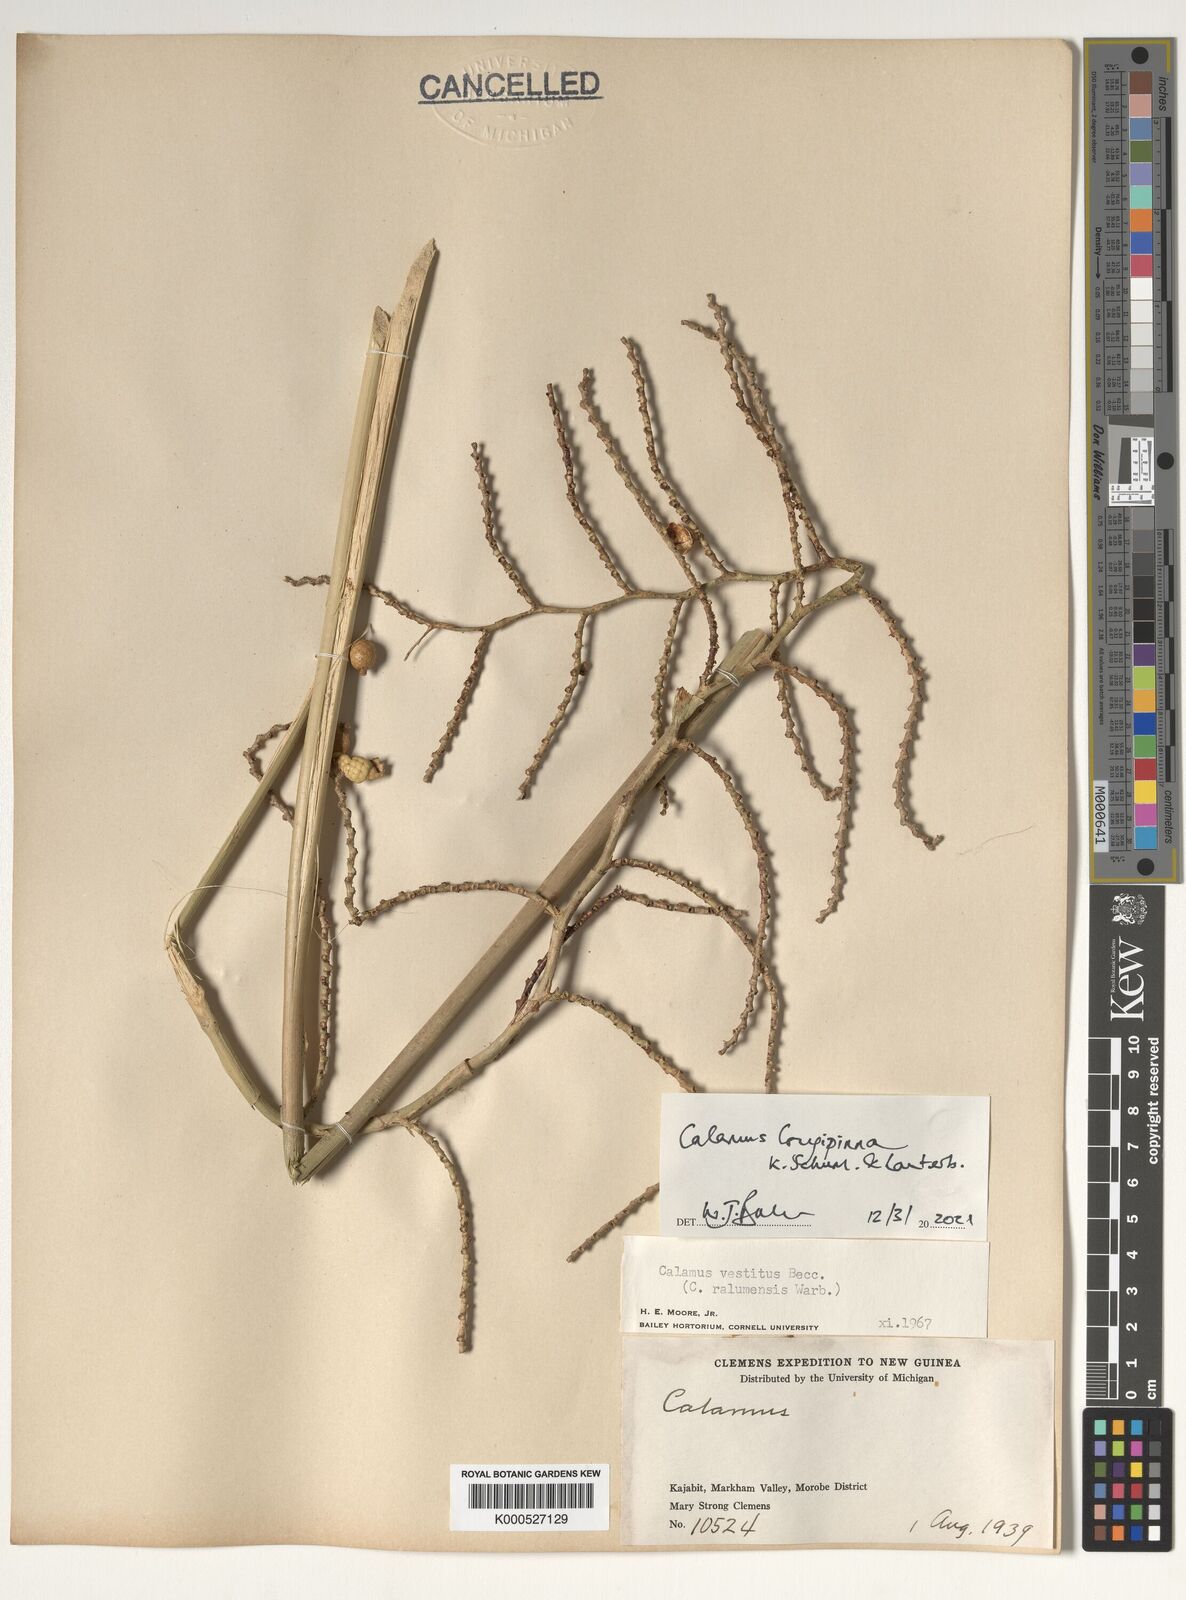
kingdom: Plantae
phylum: Tracheophyta
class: Liliopsida
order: Arecales
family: Arecaceae
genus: Calamus
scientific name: Calamus longipinna
